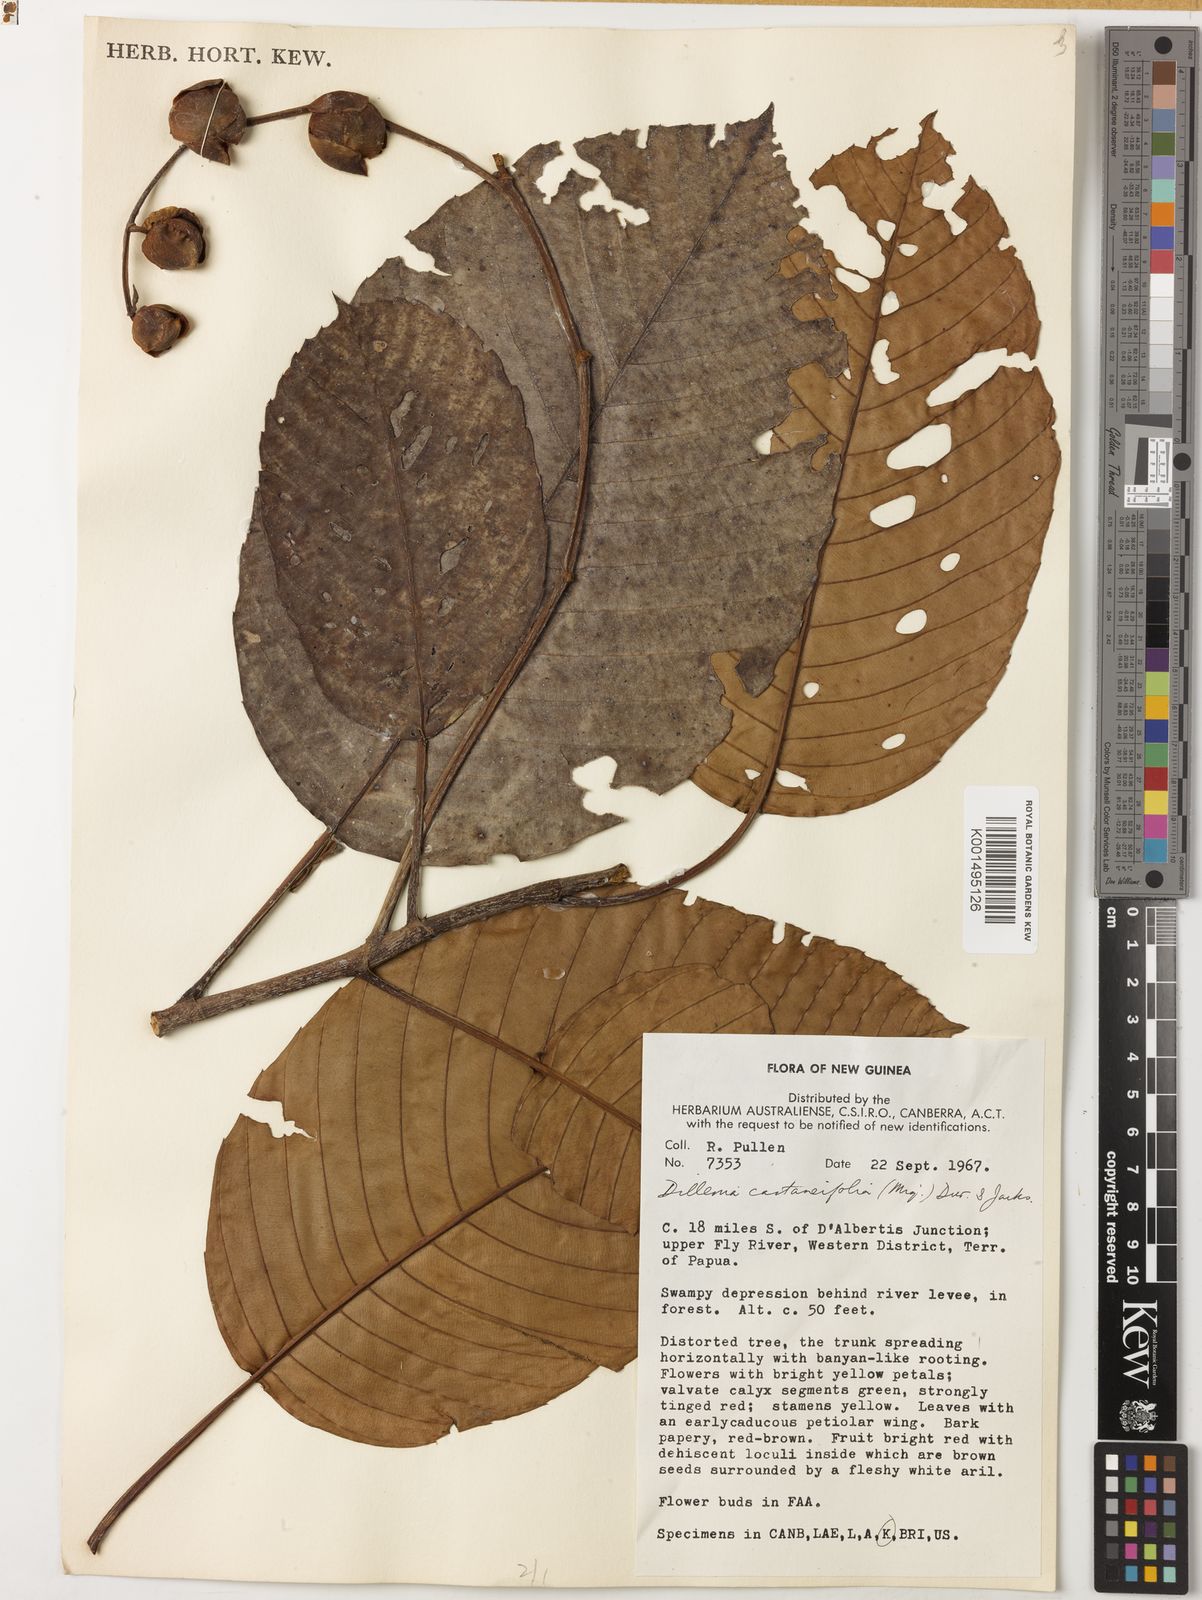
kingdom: Plantae
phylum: Tracheophyta
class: Magnoliopsida
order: Dilleniales
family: Dilleniaceae
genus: Dillenia
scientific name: Dillenia castaneifolia
